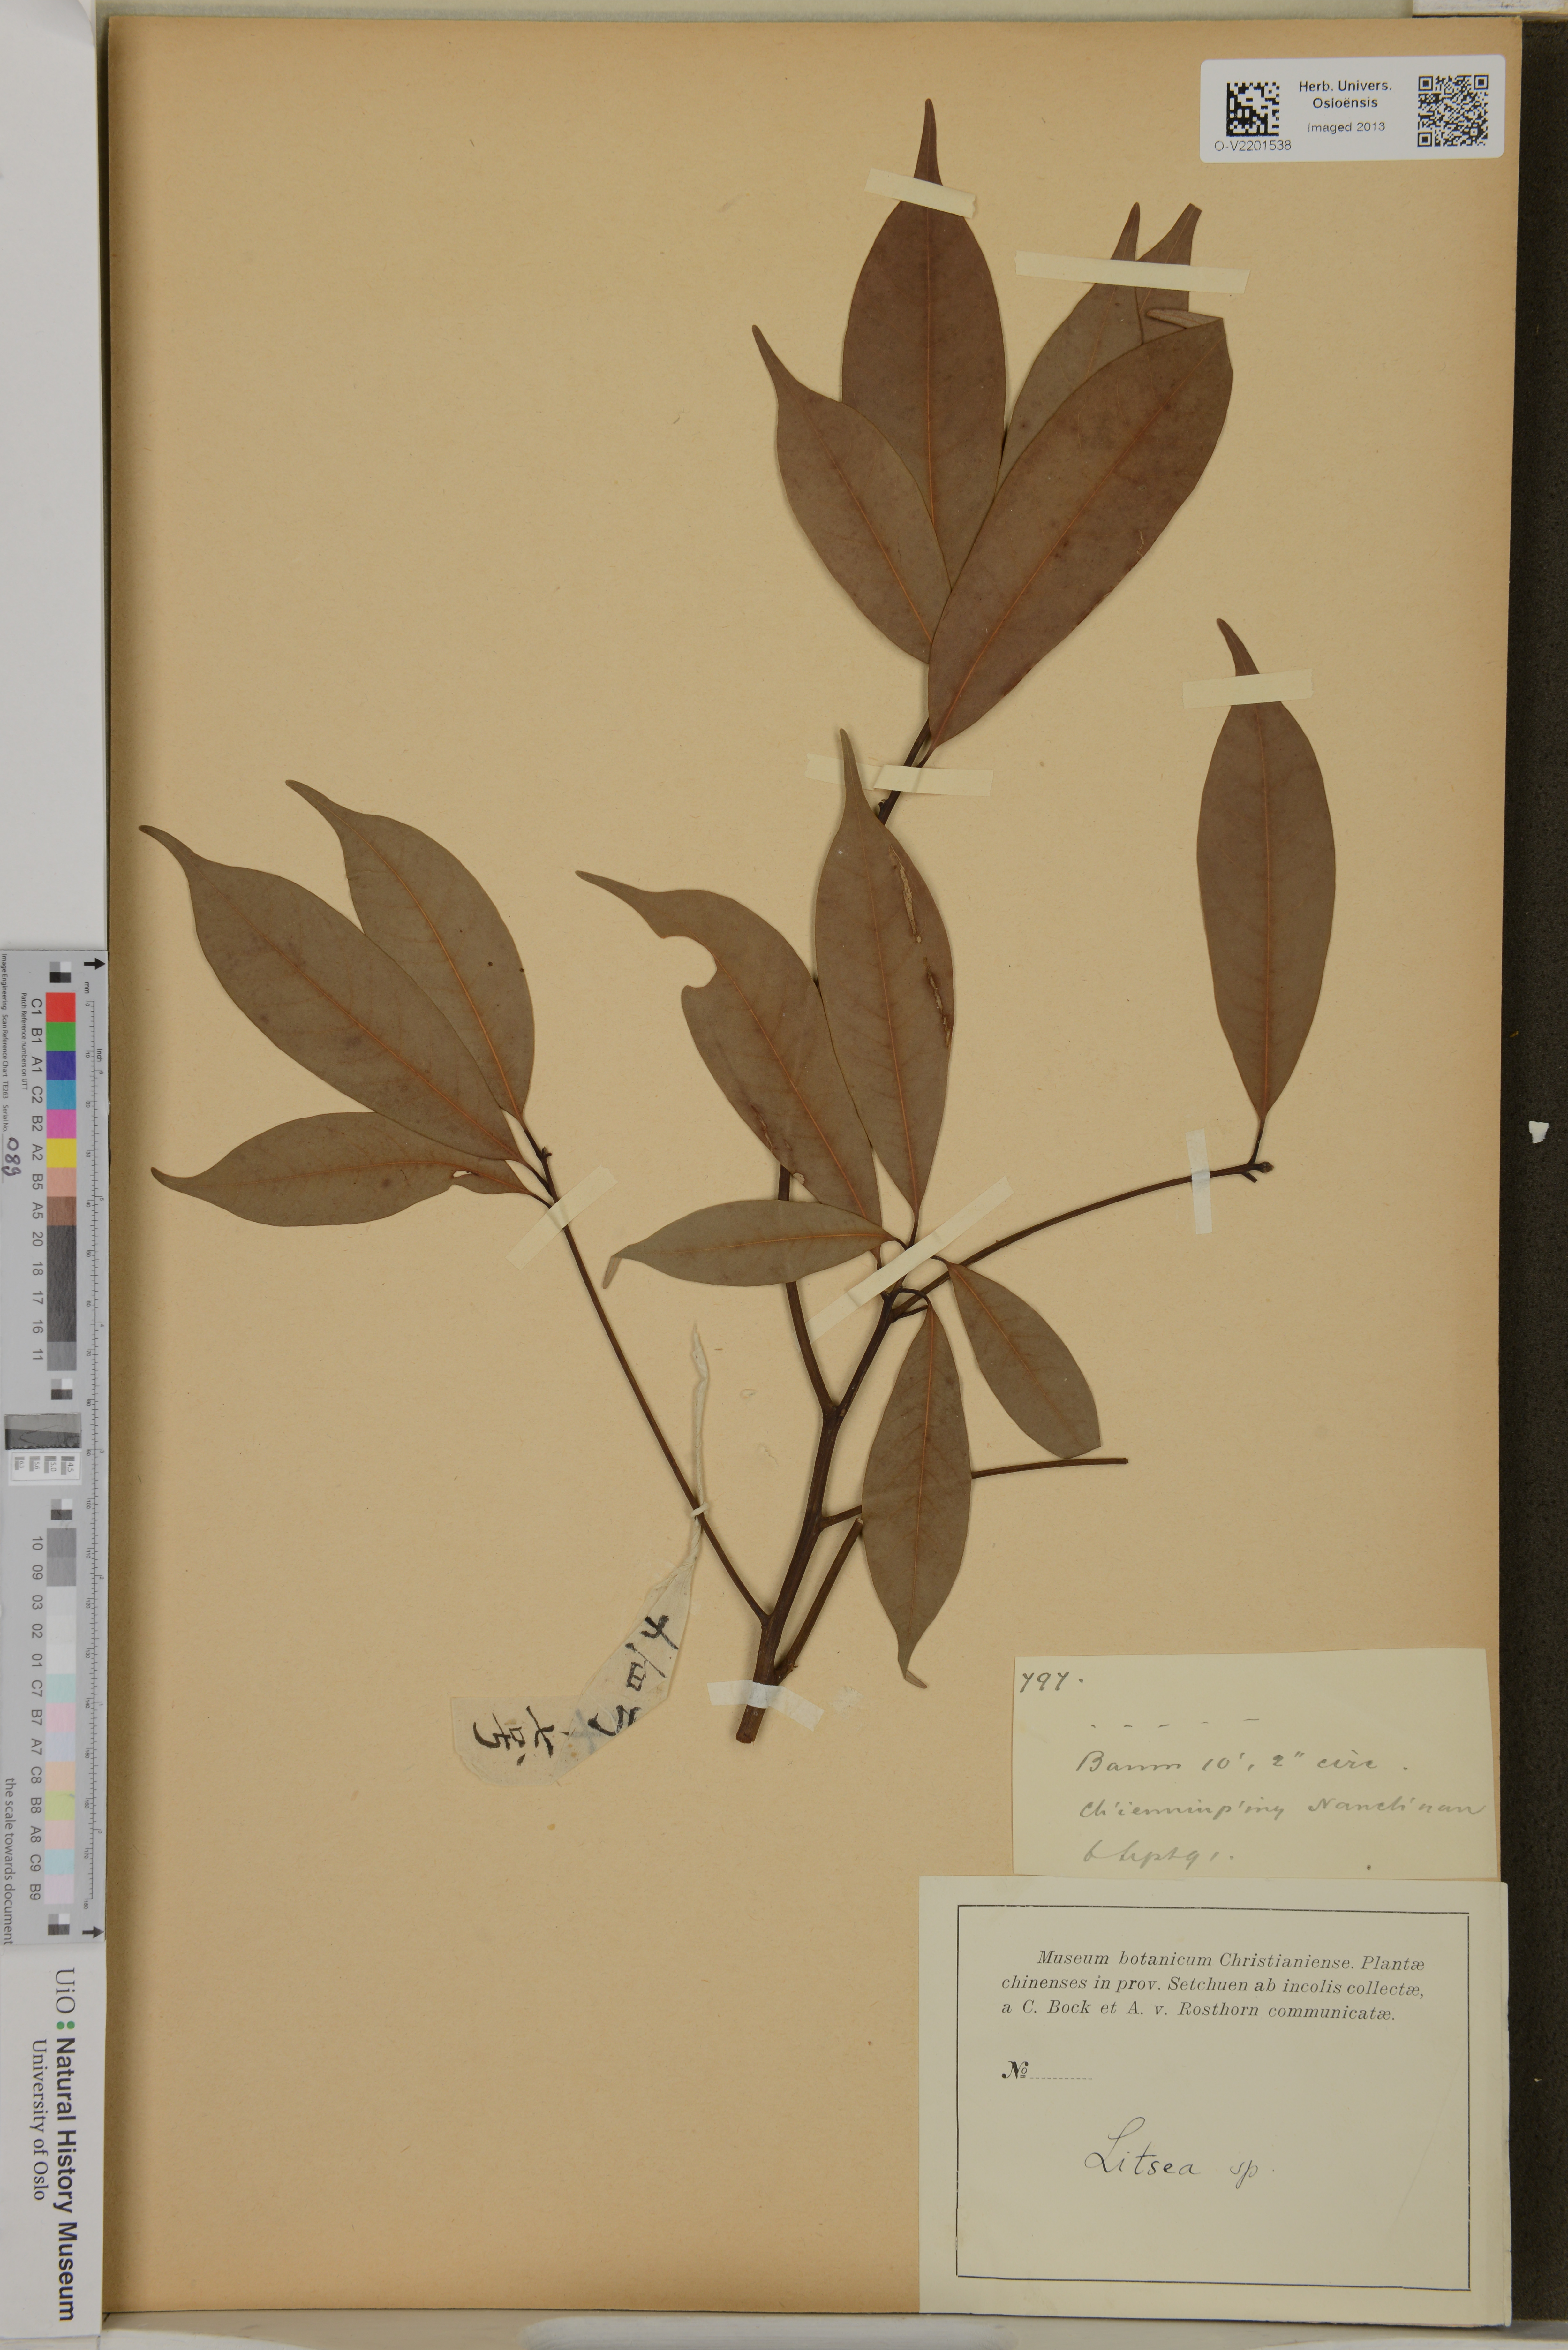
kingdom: Plantae
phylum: Tracheophyta
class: Magnoliopsida
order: Laurales
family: Lauraceae
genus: Litsea
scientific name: Litsea
